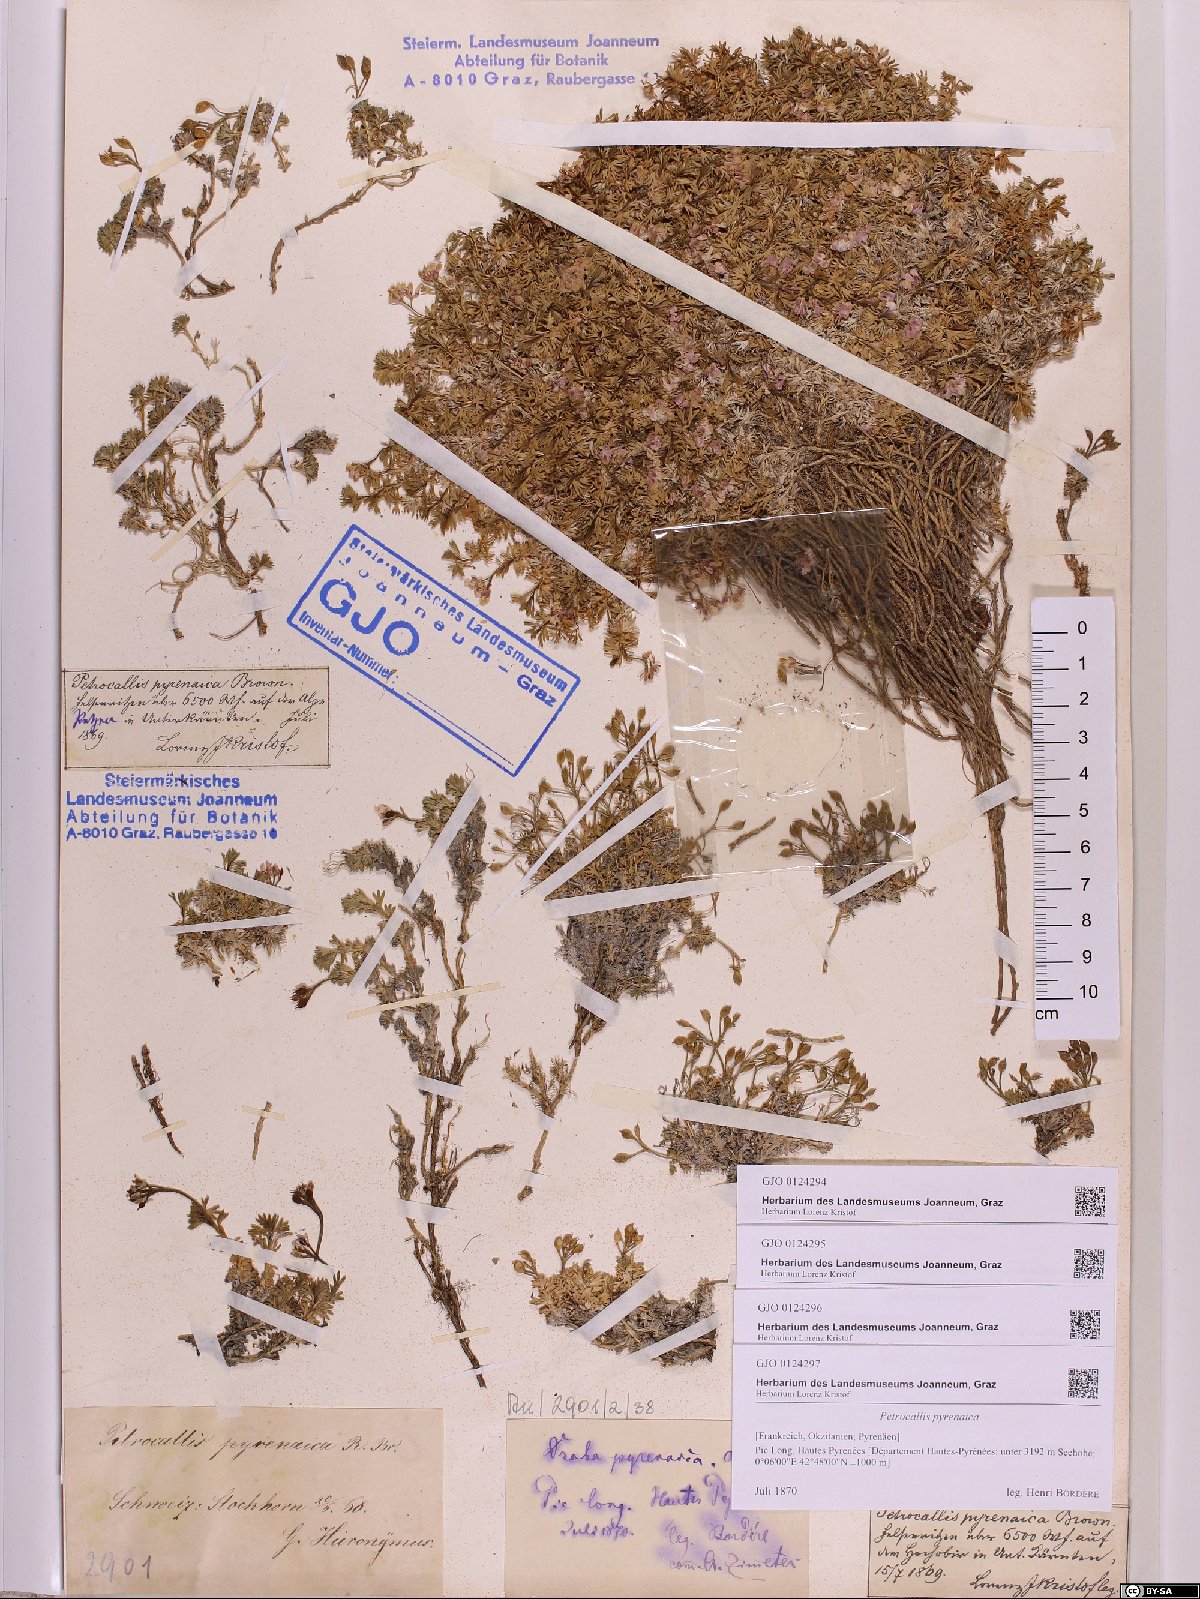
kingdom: Plantae
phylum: Tracheophyta
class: Magnoliopsida
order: Brassicales
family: Brassicaceae
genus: Petrocallis
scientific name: Petrocallis pyrenaica
